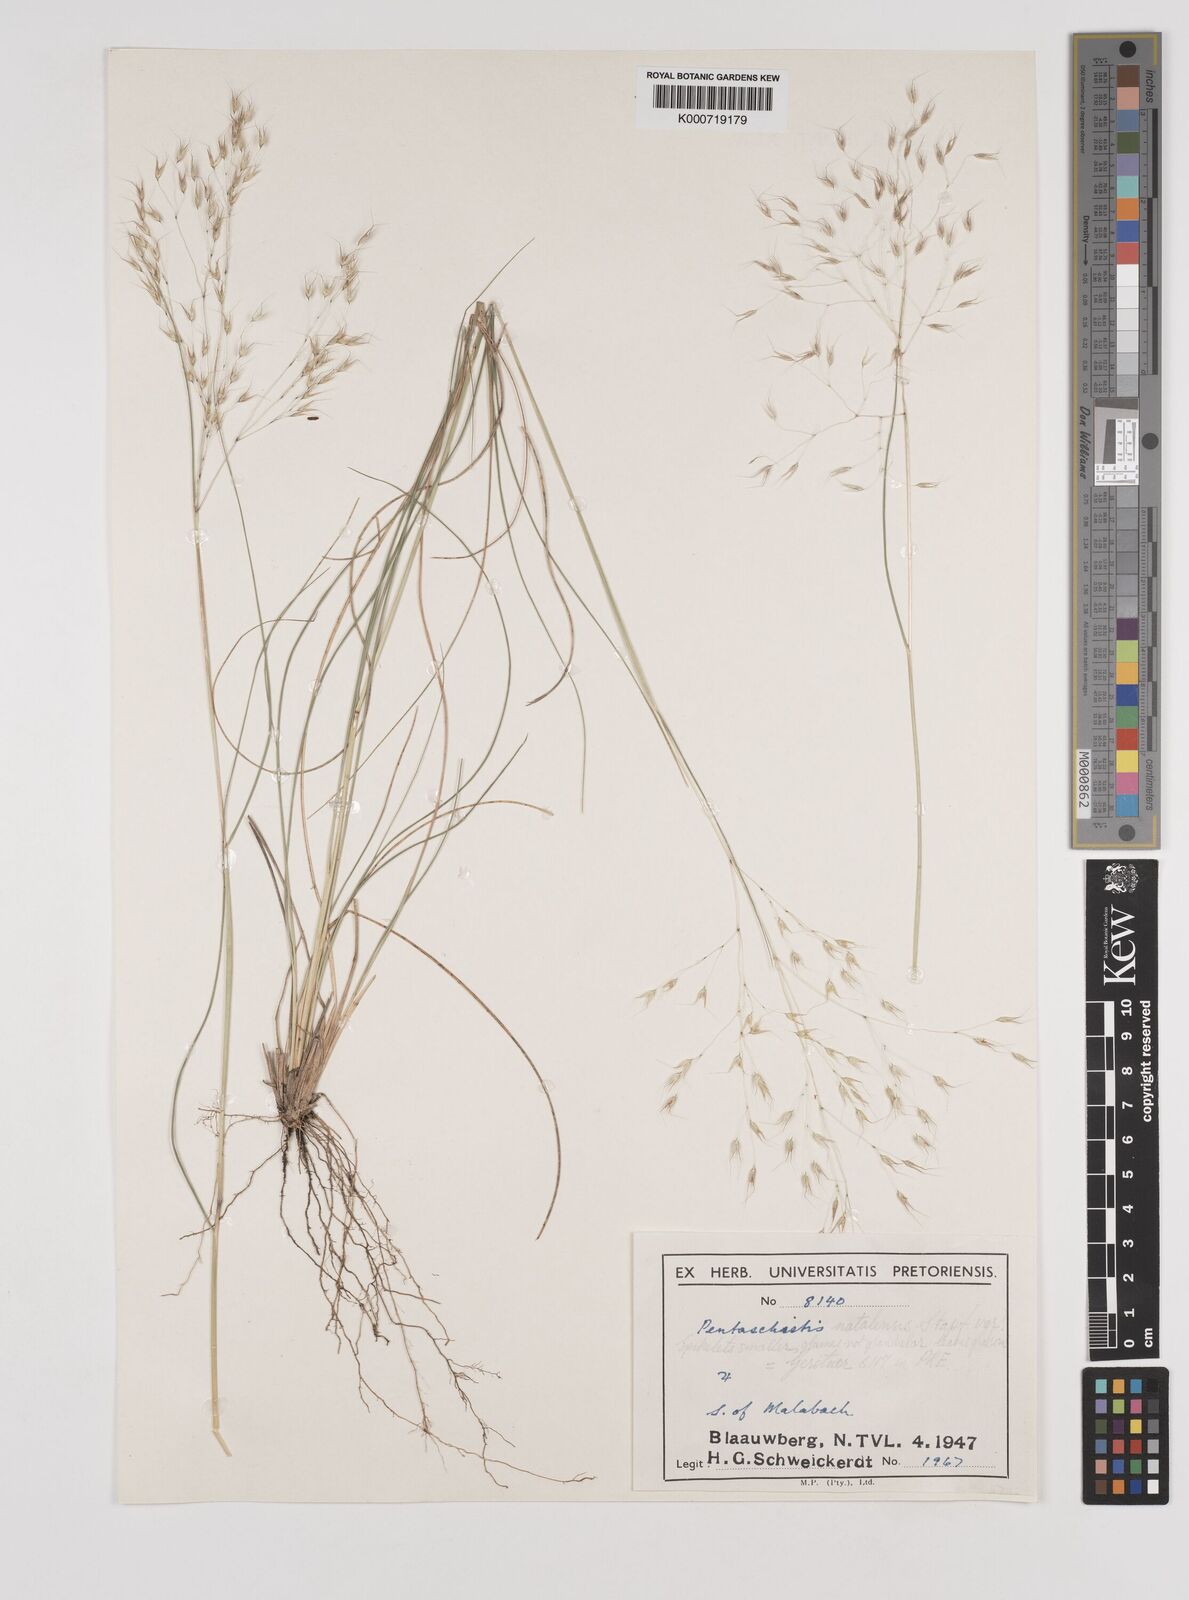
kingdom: Plantae
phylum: Tracheophyta
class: Liliopsida
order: Poales
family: Poaceae
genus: Pentameris
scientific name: Pentameris natalensis
